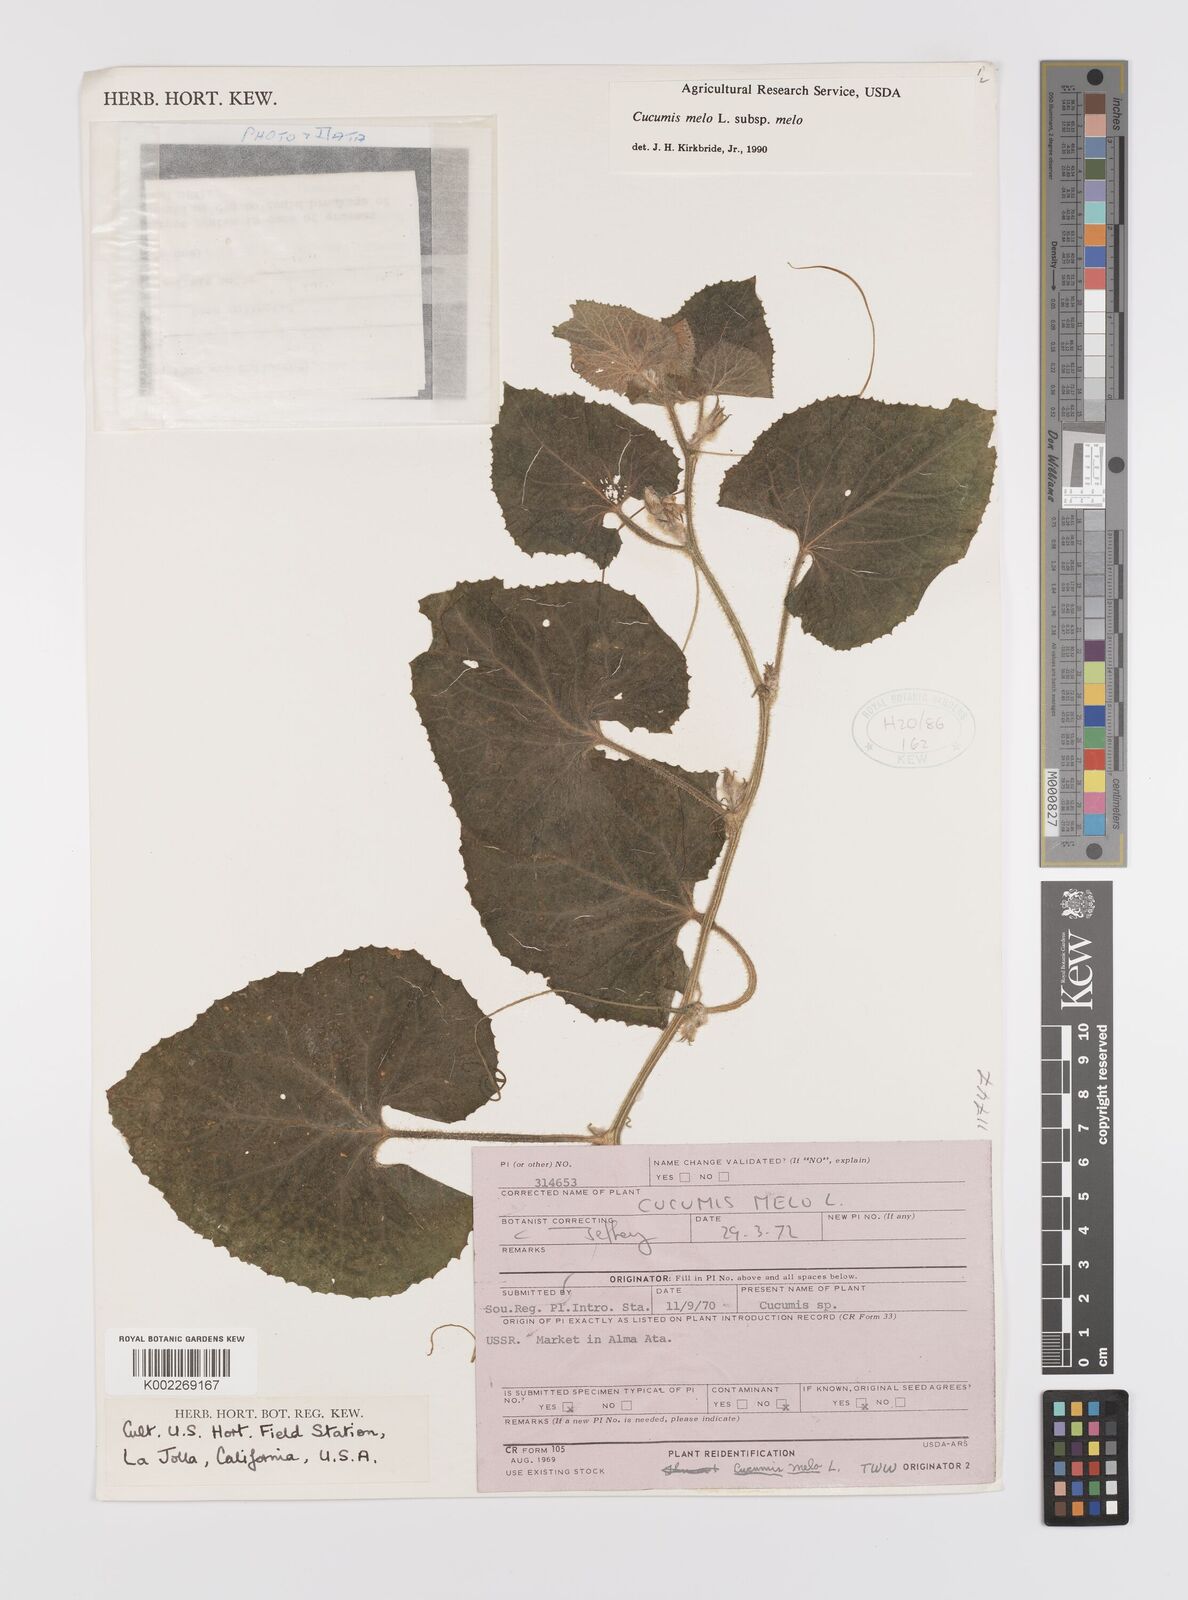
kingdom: Plantae
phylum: Tracheophyta
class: Magnoliopsida
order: Cucurbitales
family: Cucurbitaceae
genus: Cucumis
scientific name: Cucumis melo
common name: Melon
